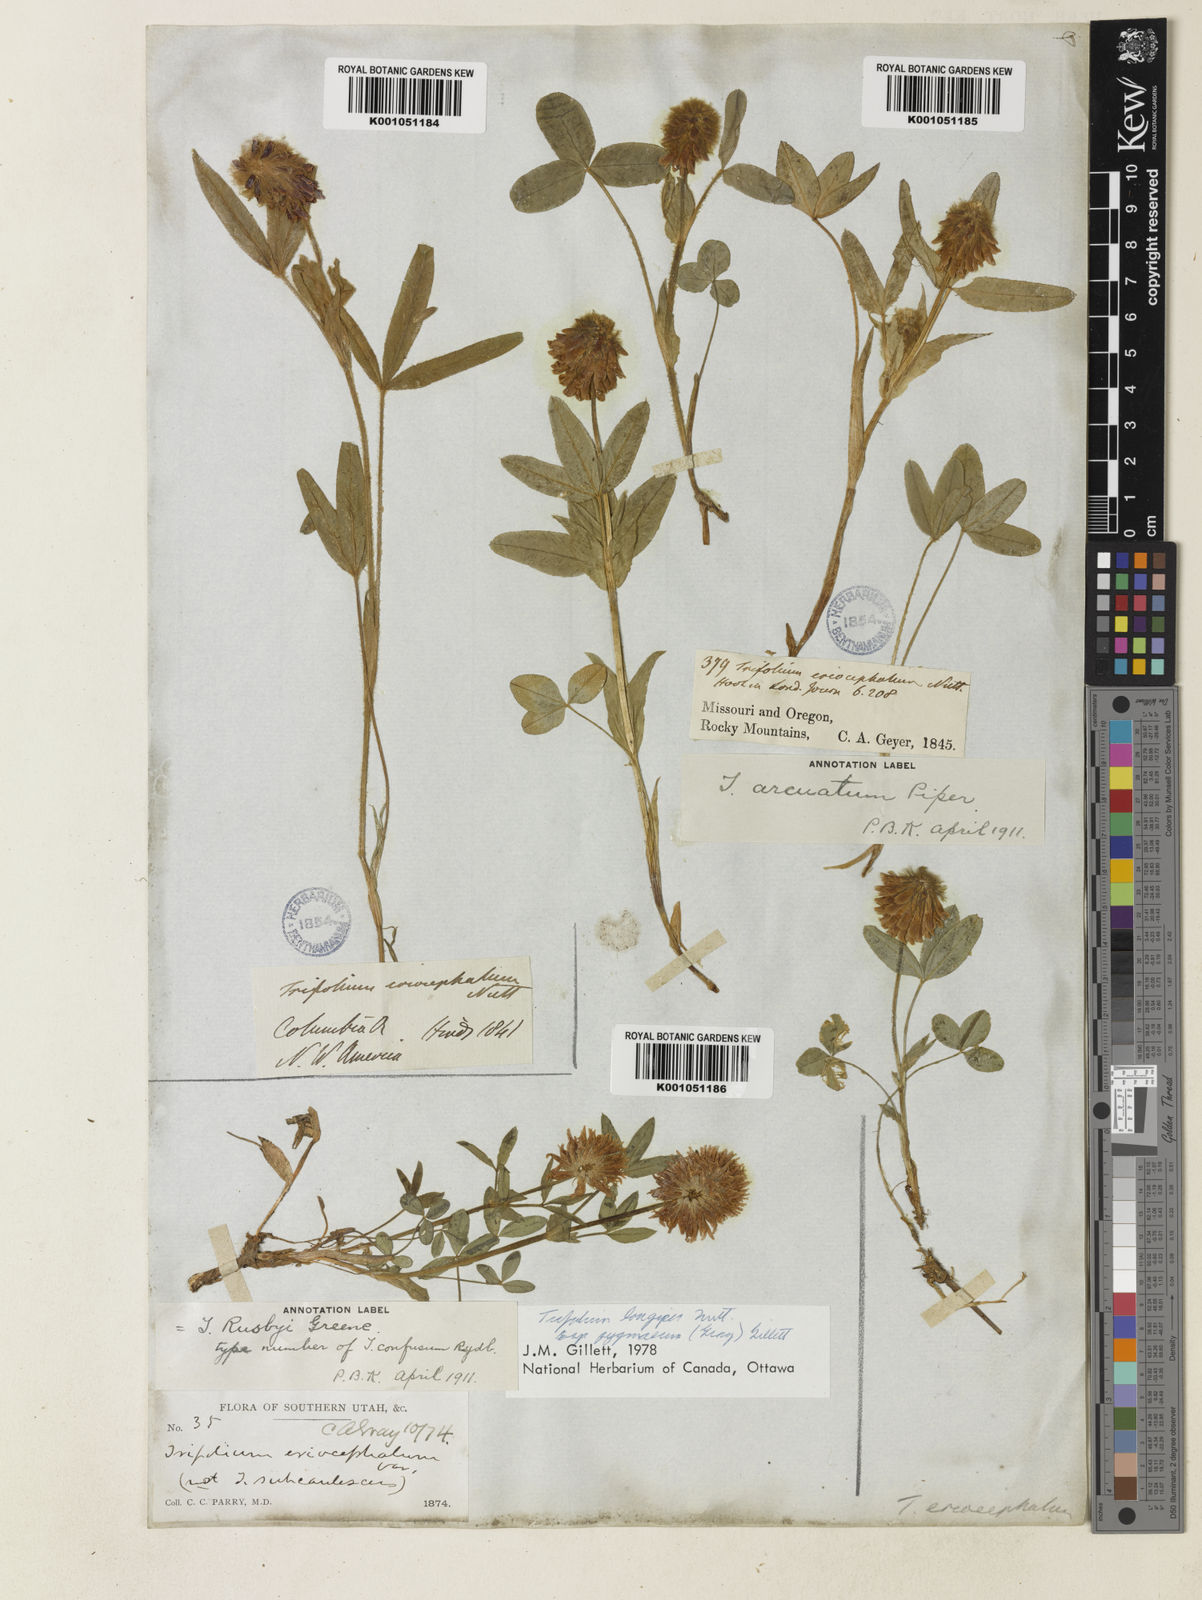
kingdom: Plantae
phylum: Tracheophyta
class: Magnoliopsida
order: Fabales
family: Fabaceae
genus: Trifolium
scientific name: Trifolium longipes
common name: Long-stalk clover
